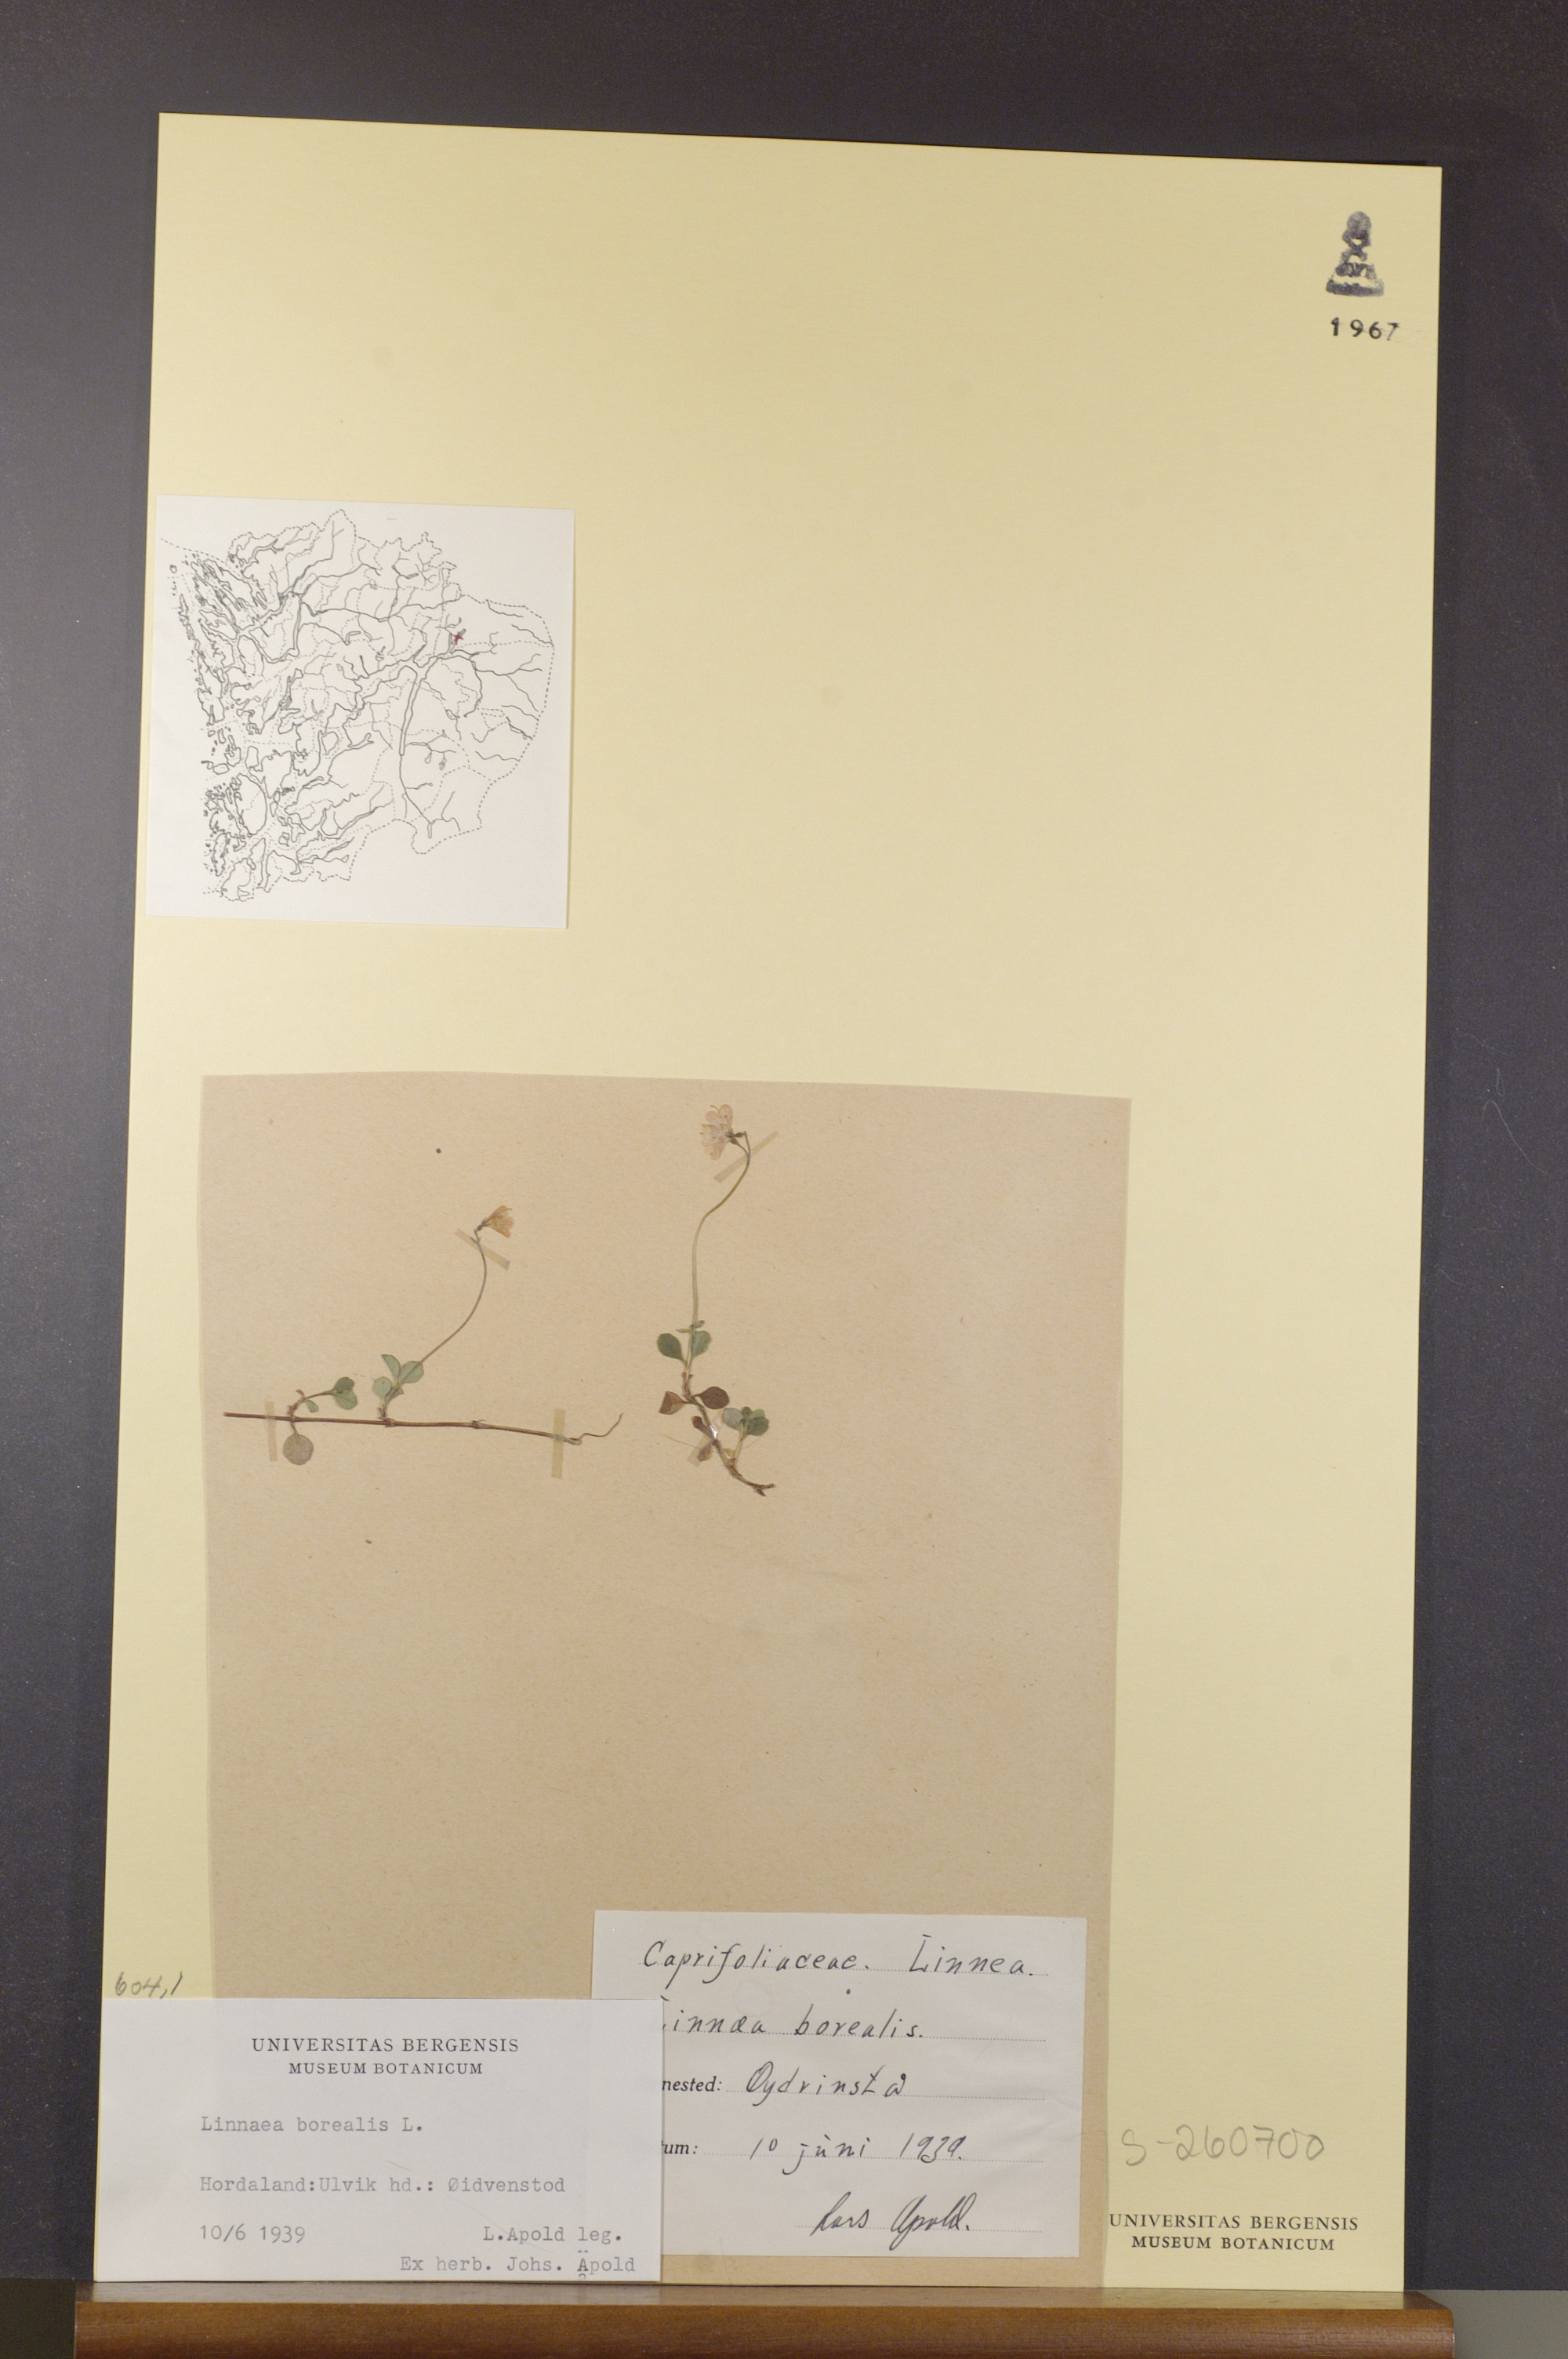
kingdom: Plantae
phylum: Tracheophyta
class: Magnoliopsida
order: Dipsacales
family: Caprifoliaceae
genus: Linnaea
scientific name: Linnaea borealis
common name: Twinflower
